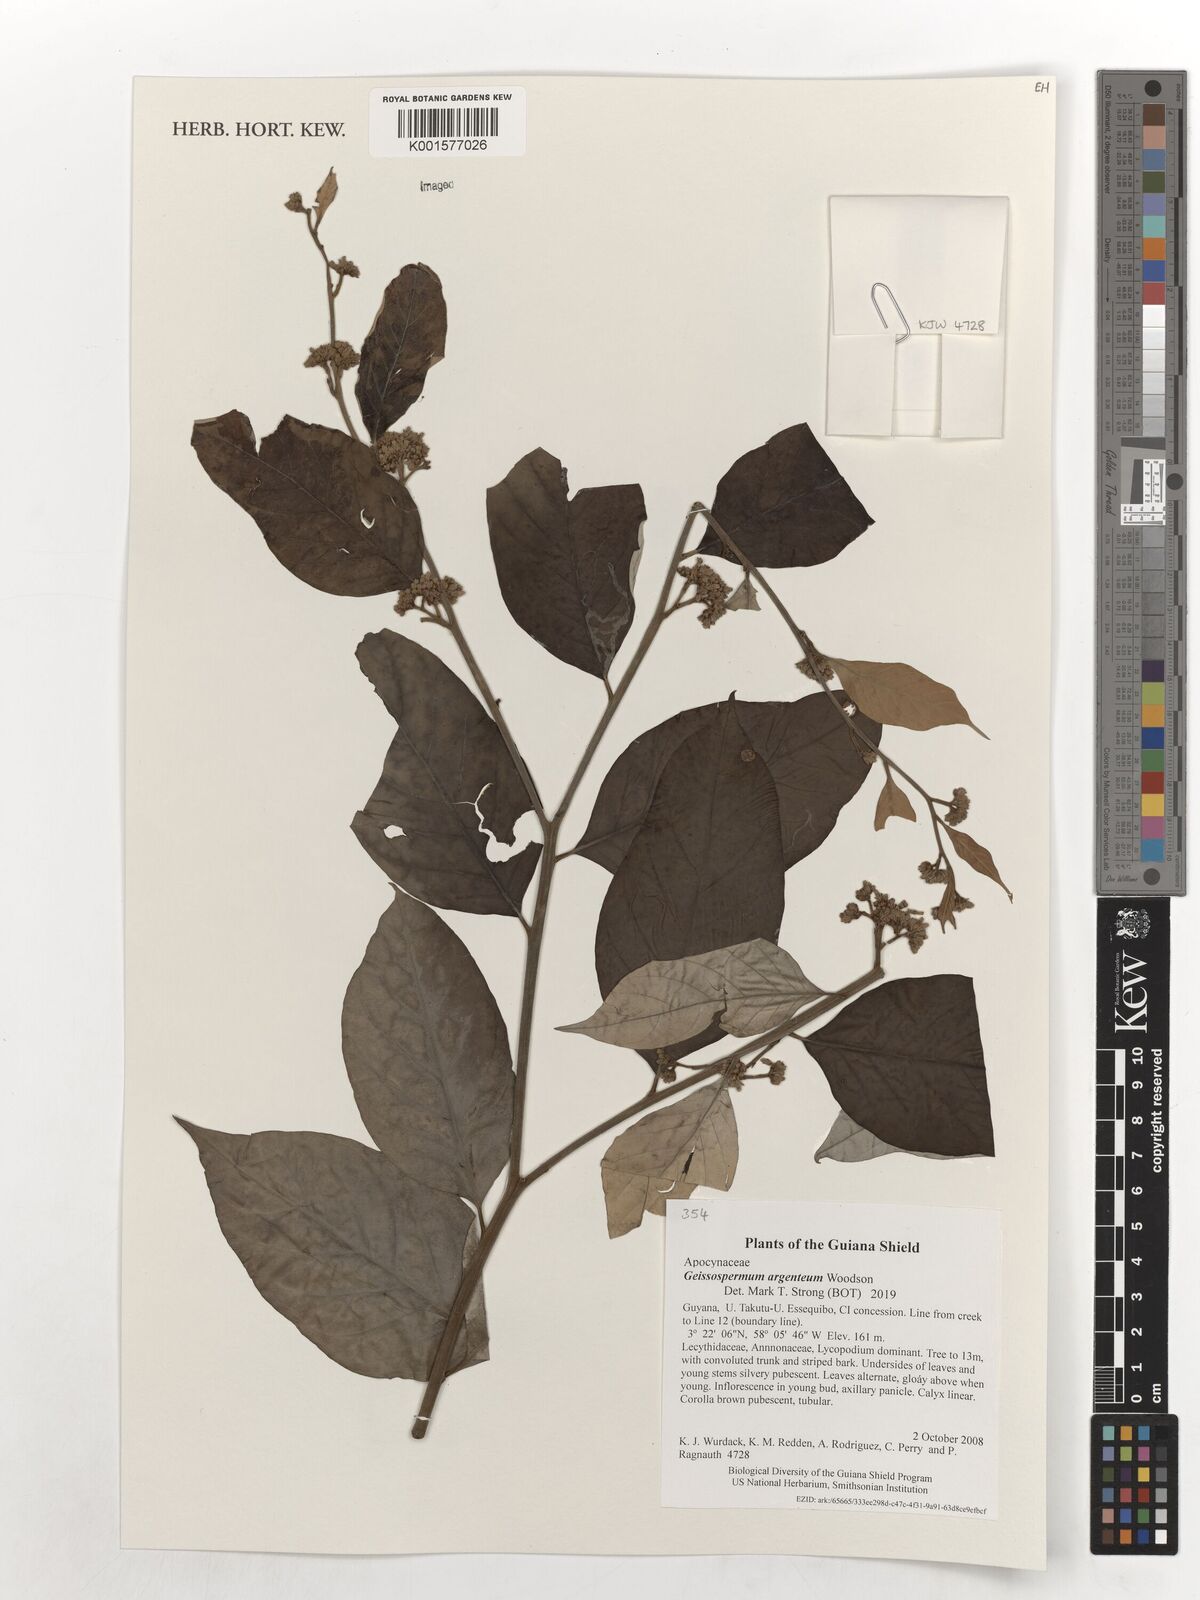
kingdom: Plantae
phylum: Tracheophyta
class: Magnoliopsida
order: Gentianales
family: Apocynaceae
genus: Geissospermum
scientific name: Geissospermum argenteum
